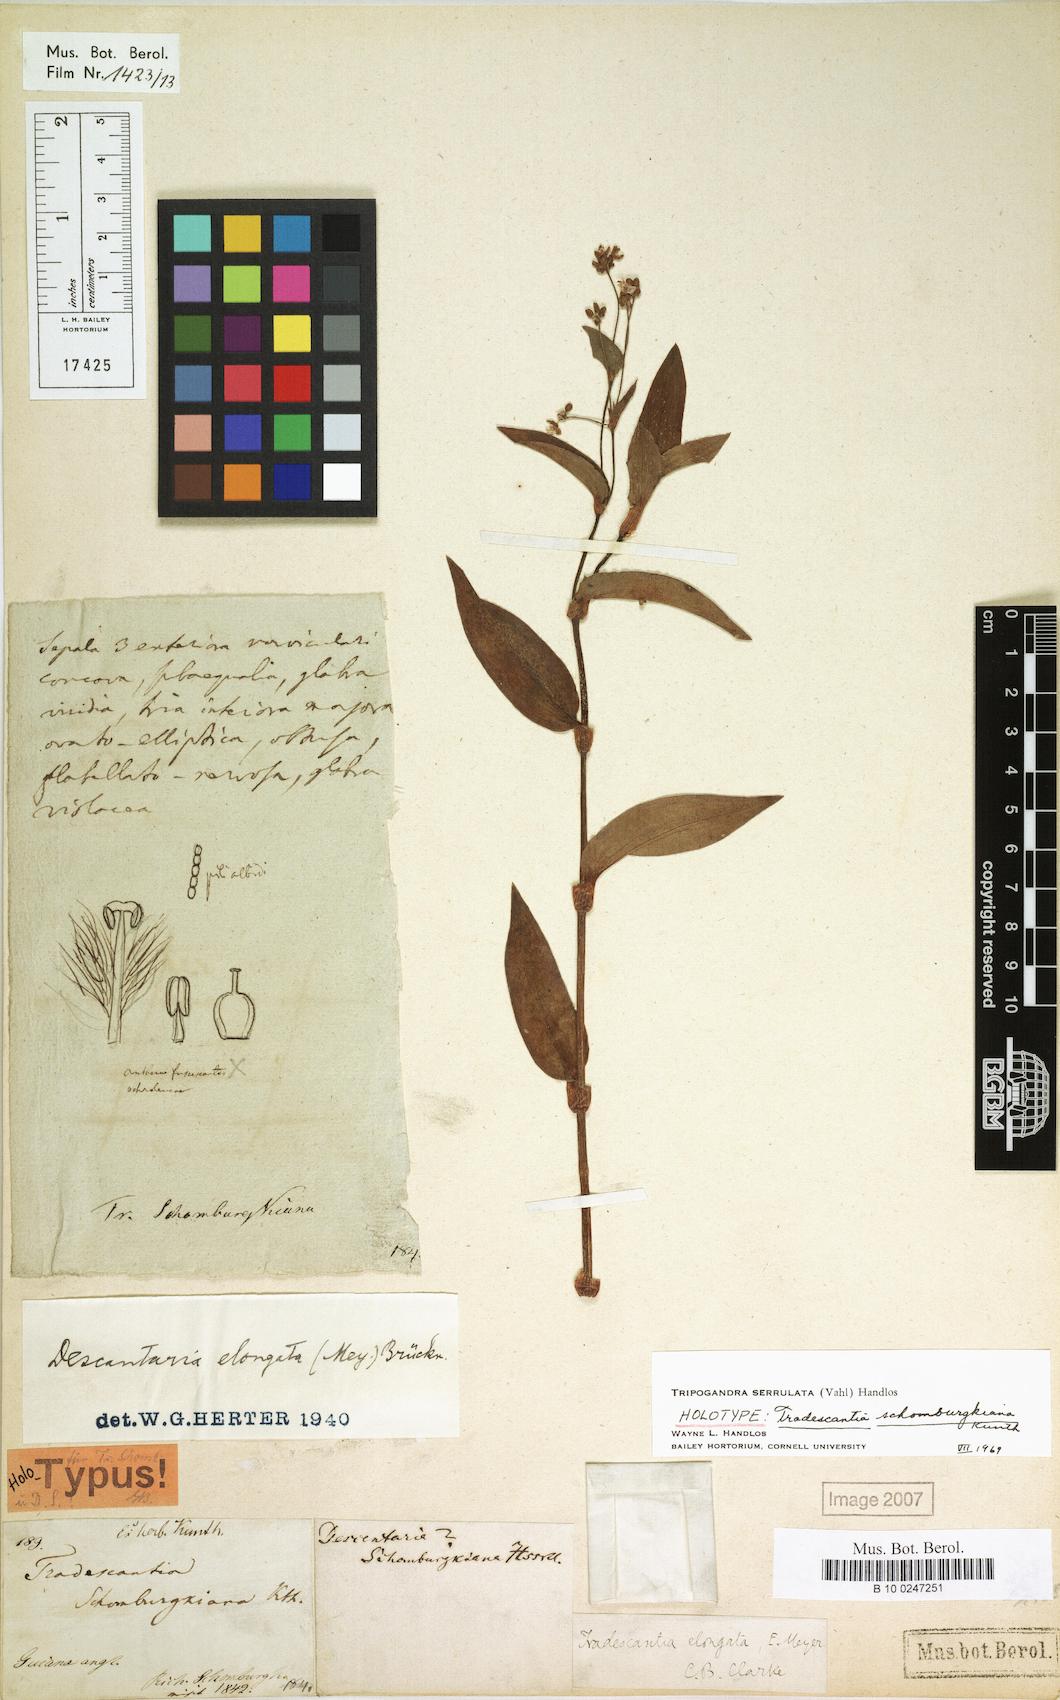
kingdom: Plantae
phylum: Tracheophyta
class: Liliopsida
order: Commelinales
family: Commelinaceae
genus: Callisia
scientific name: Callisia serrulata
